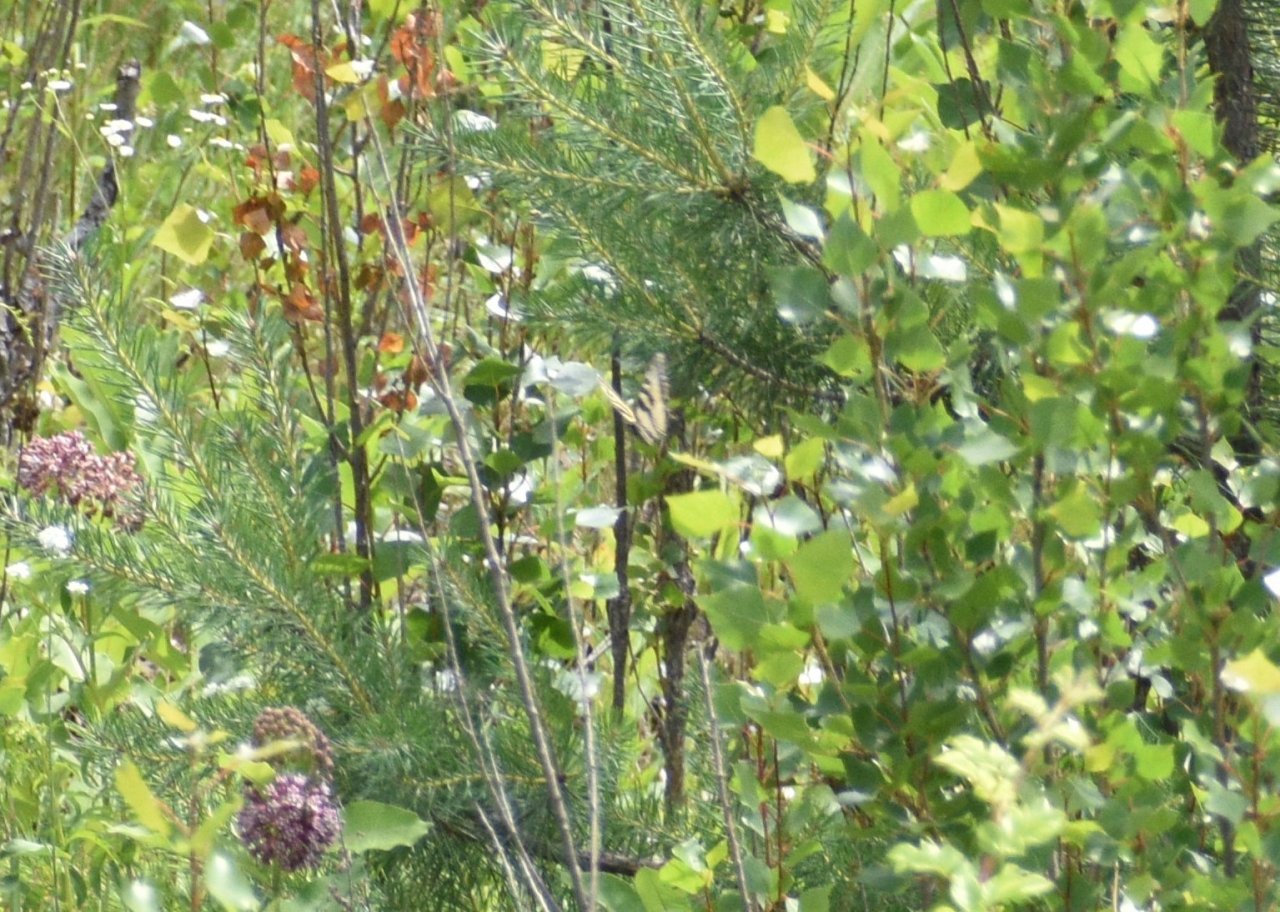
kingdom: Animalia
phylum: Arthropoda
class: Insecta
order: Lepidoptera
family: Papilionidae
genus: Pterourus
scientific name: Pterourus canadensis
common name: Canadian Tiger Swallowtail
